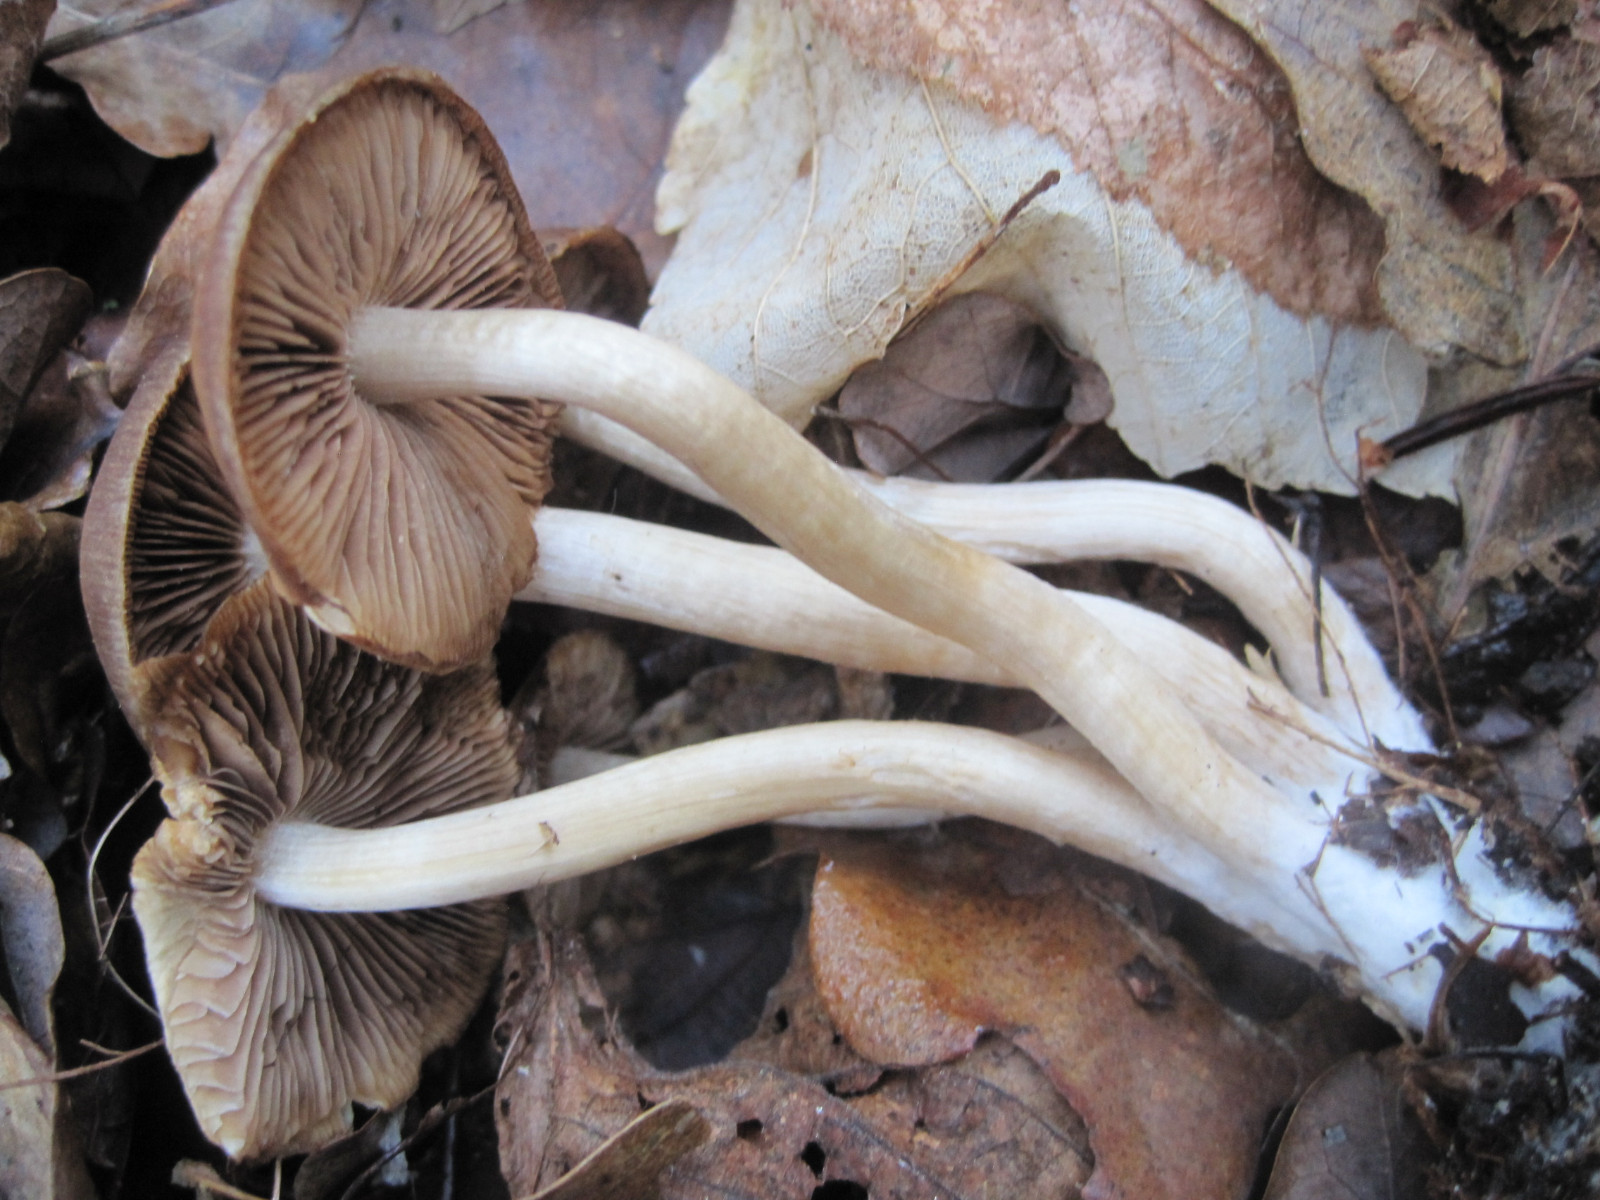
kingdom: Fungi
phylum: Basidiomycota
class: Agaricomycetes
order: Agaricales
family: Psathyrellaceae
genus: Psathyrella
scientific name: Psathyrella piluliformis
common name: lysstokket mørkhat
